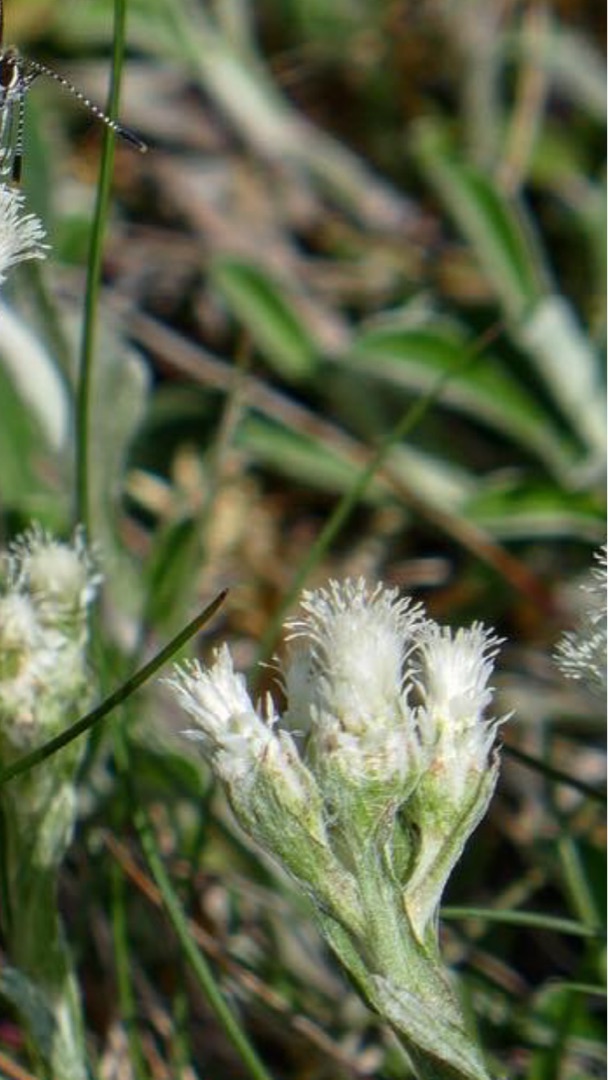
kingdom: Plantae
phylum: Tracheophyta
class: Magnoliopsida
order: Asterales
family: Asteraceae
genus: Antennaria
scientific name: Antennaria dioica
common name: Kattefod
